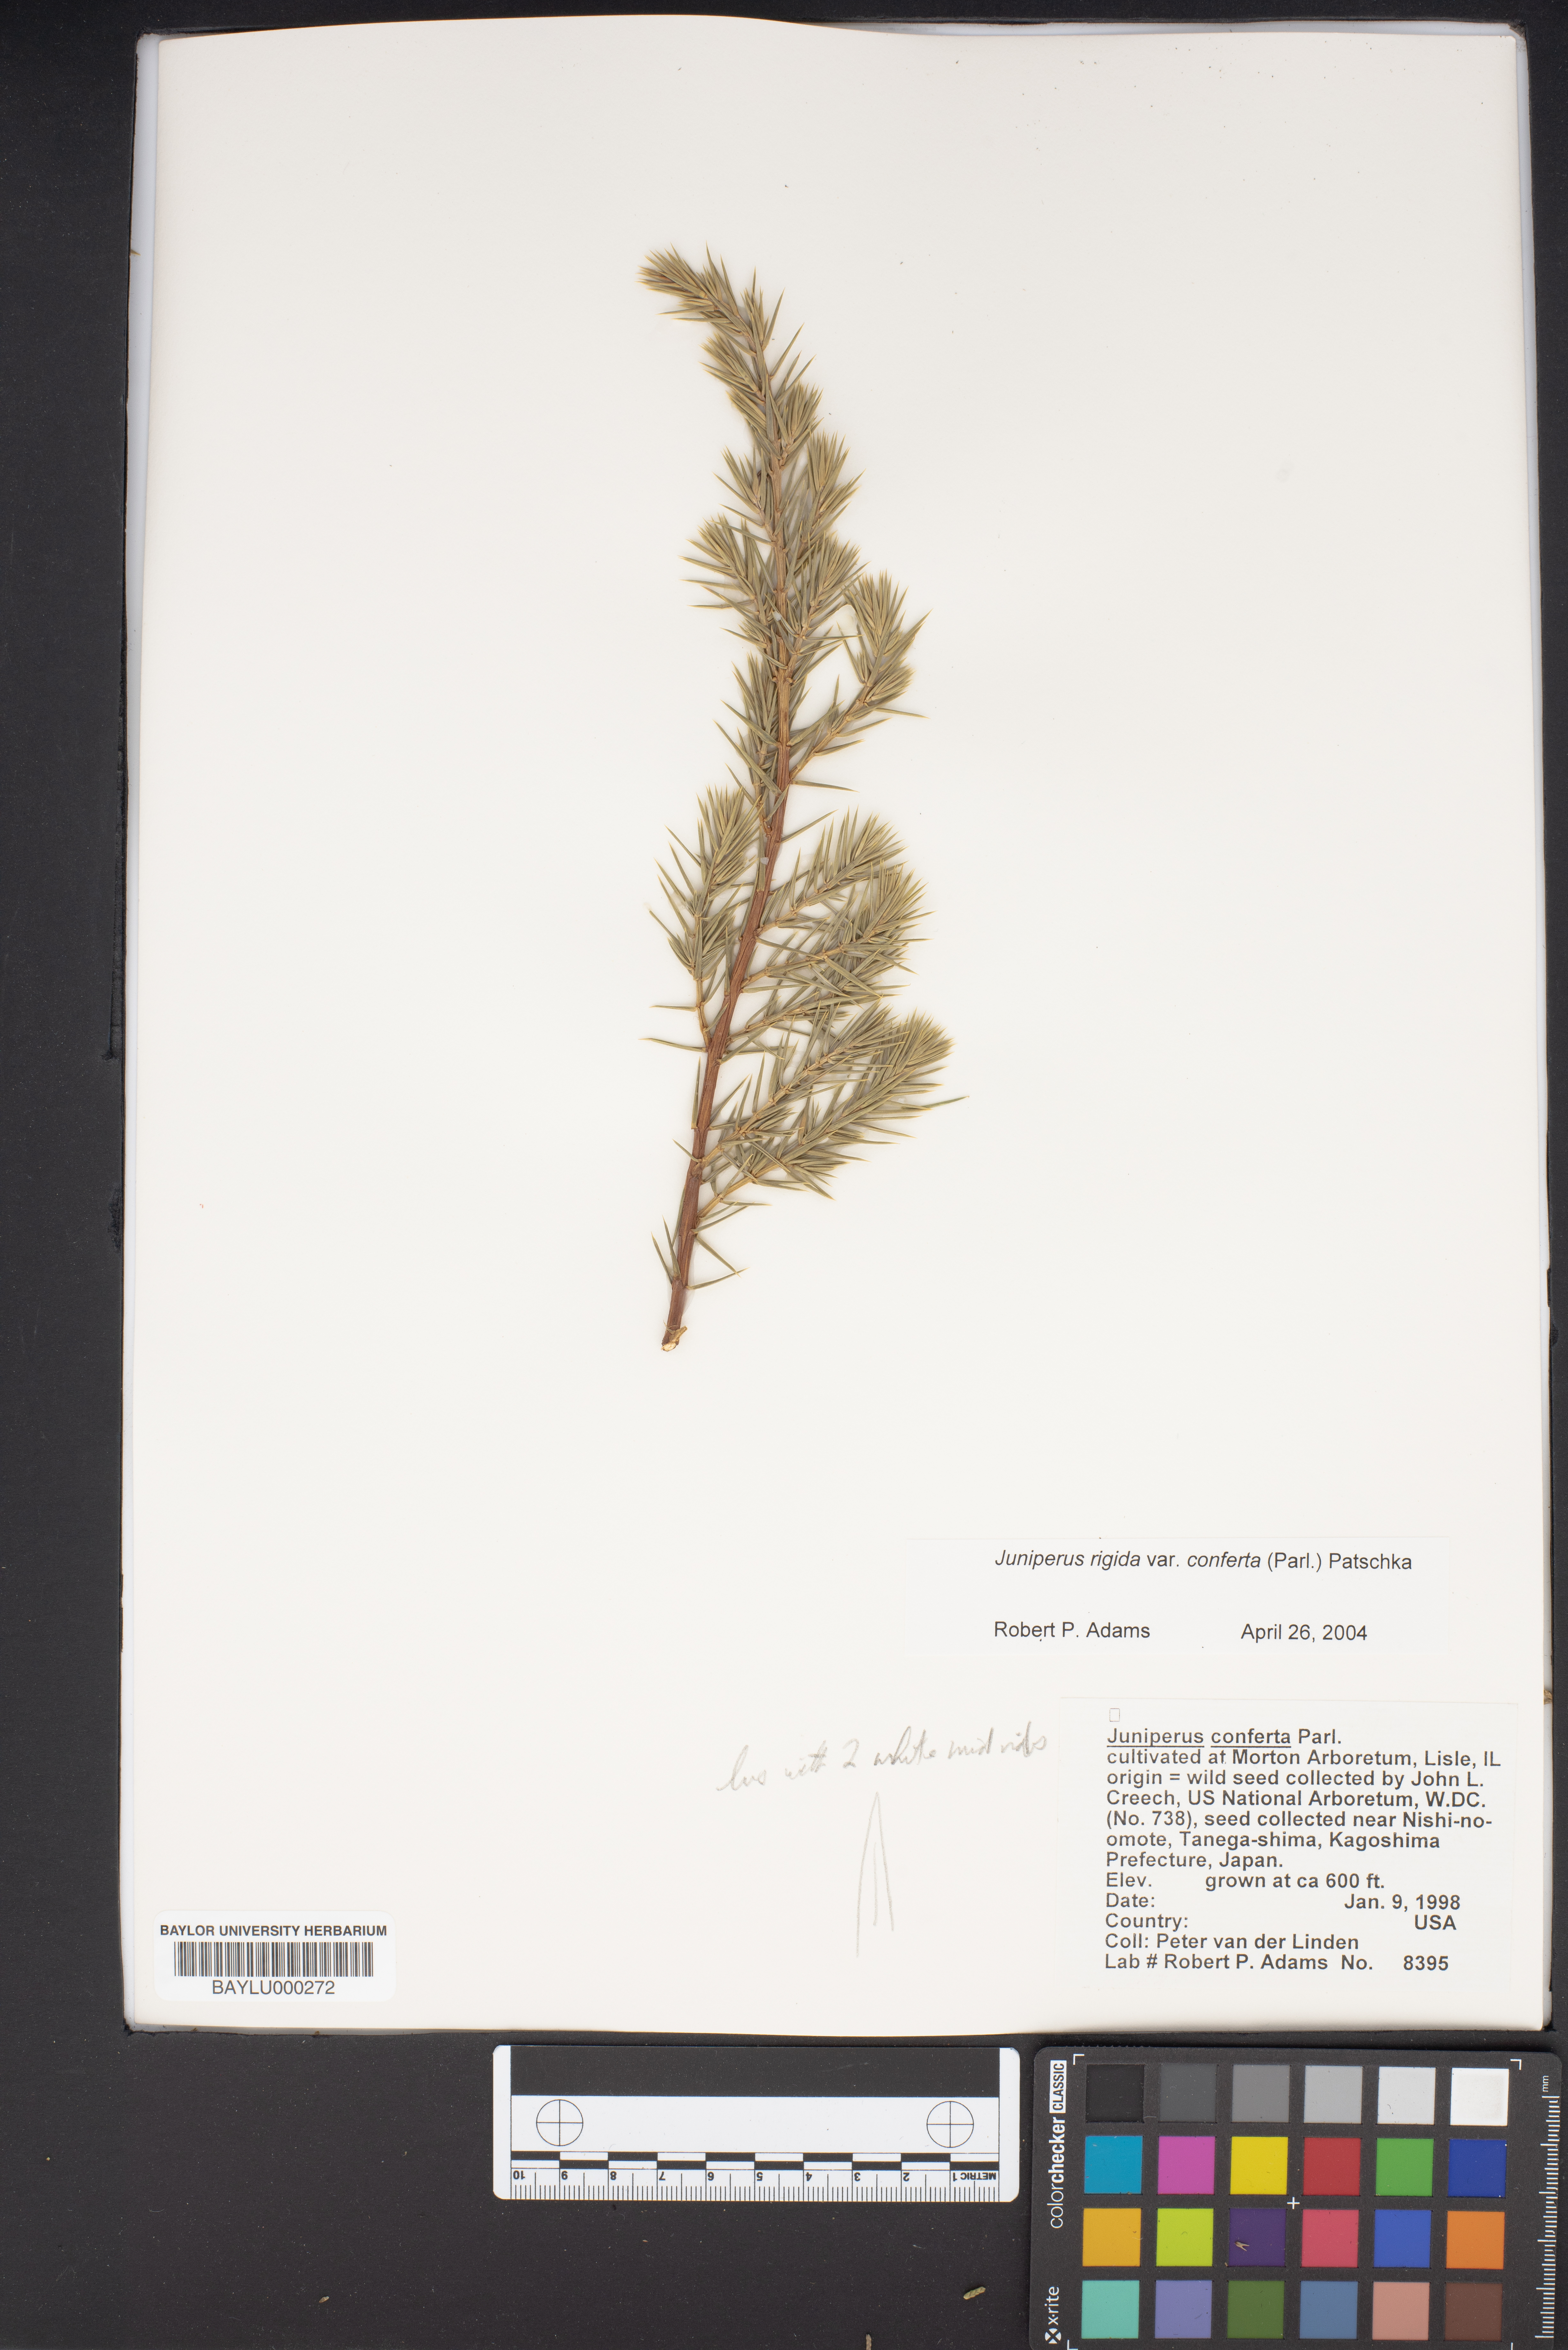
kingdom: Plantae
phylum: Tracheophyta
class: Pinopsida
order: Pinales
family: Cupressaceae
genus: Juniperus
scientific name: Juniperus rigida
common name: Needle juniper
